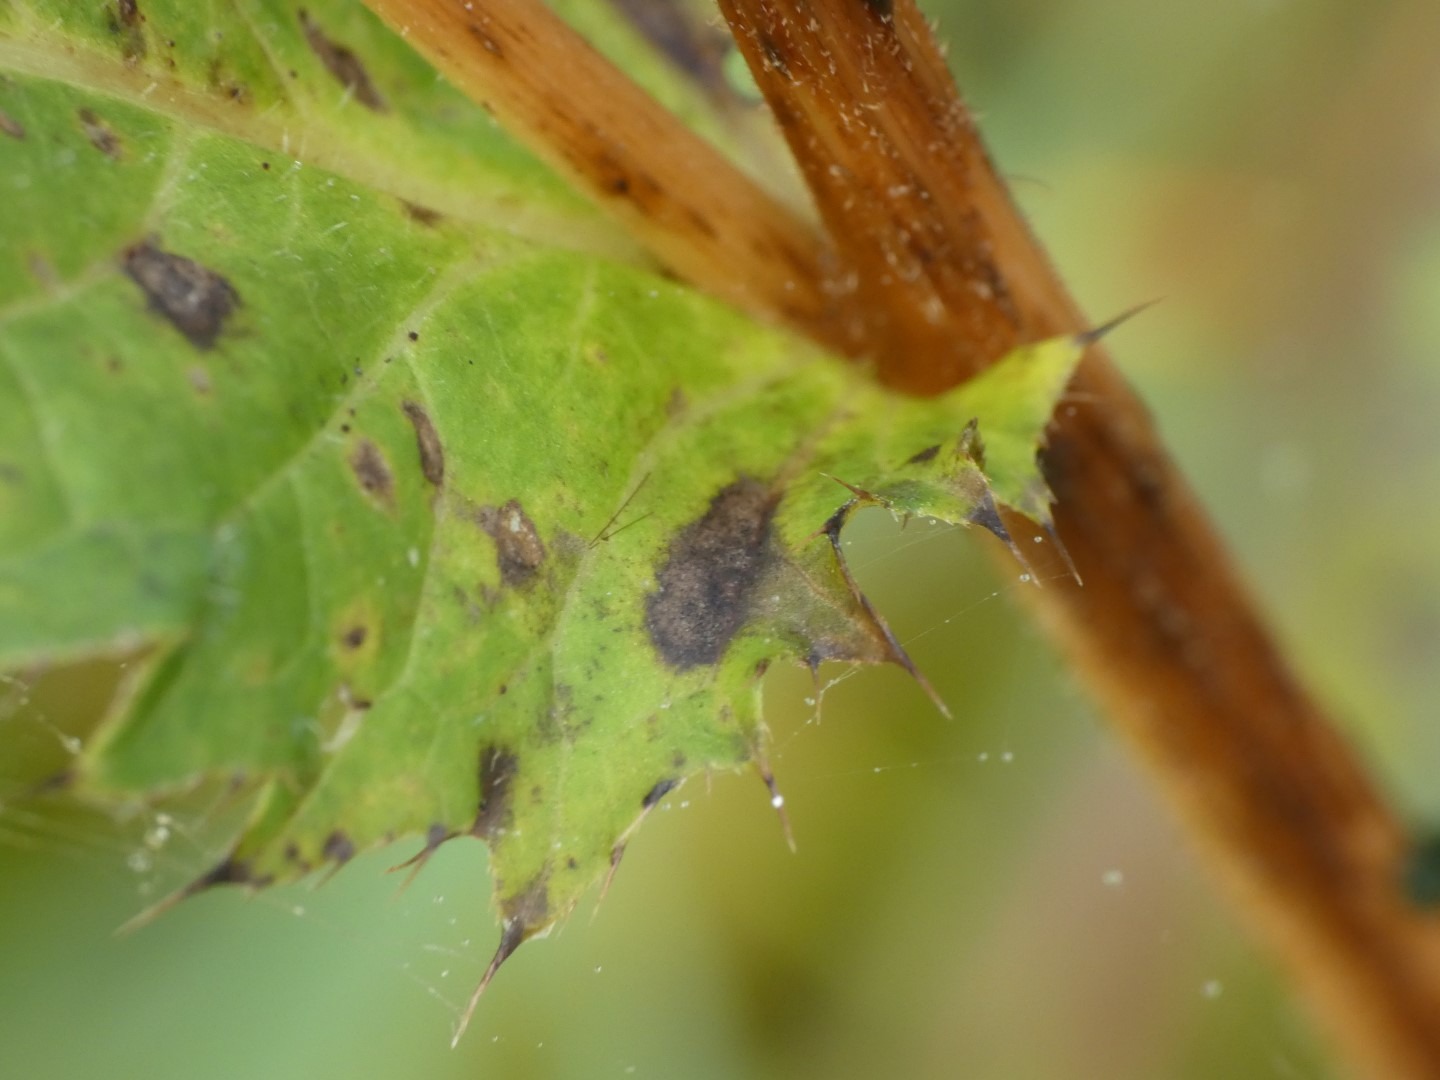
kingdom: Plantae
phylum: Tracheophyta
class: Magnoliopsida
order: Asterales
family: Asteraceae
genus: Cirsium
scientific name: Cirsium oleraceum
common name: Kål-tidsel
